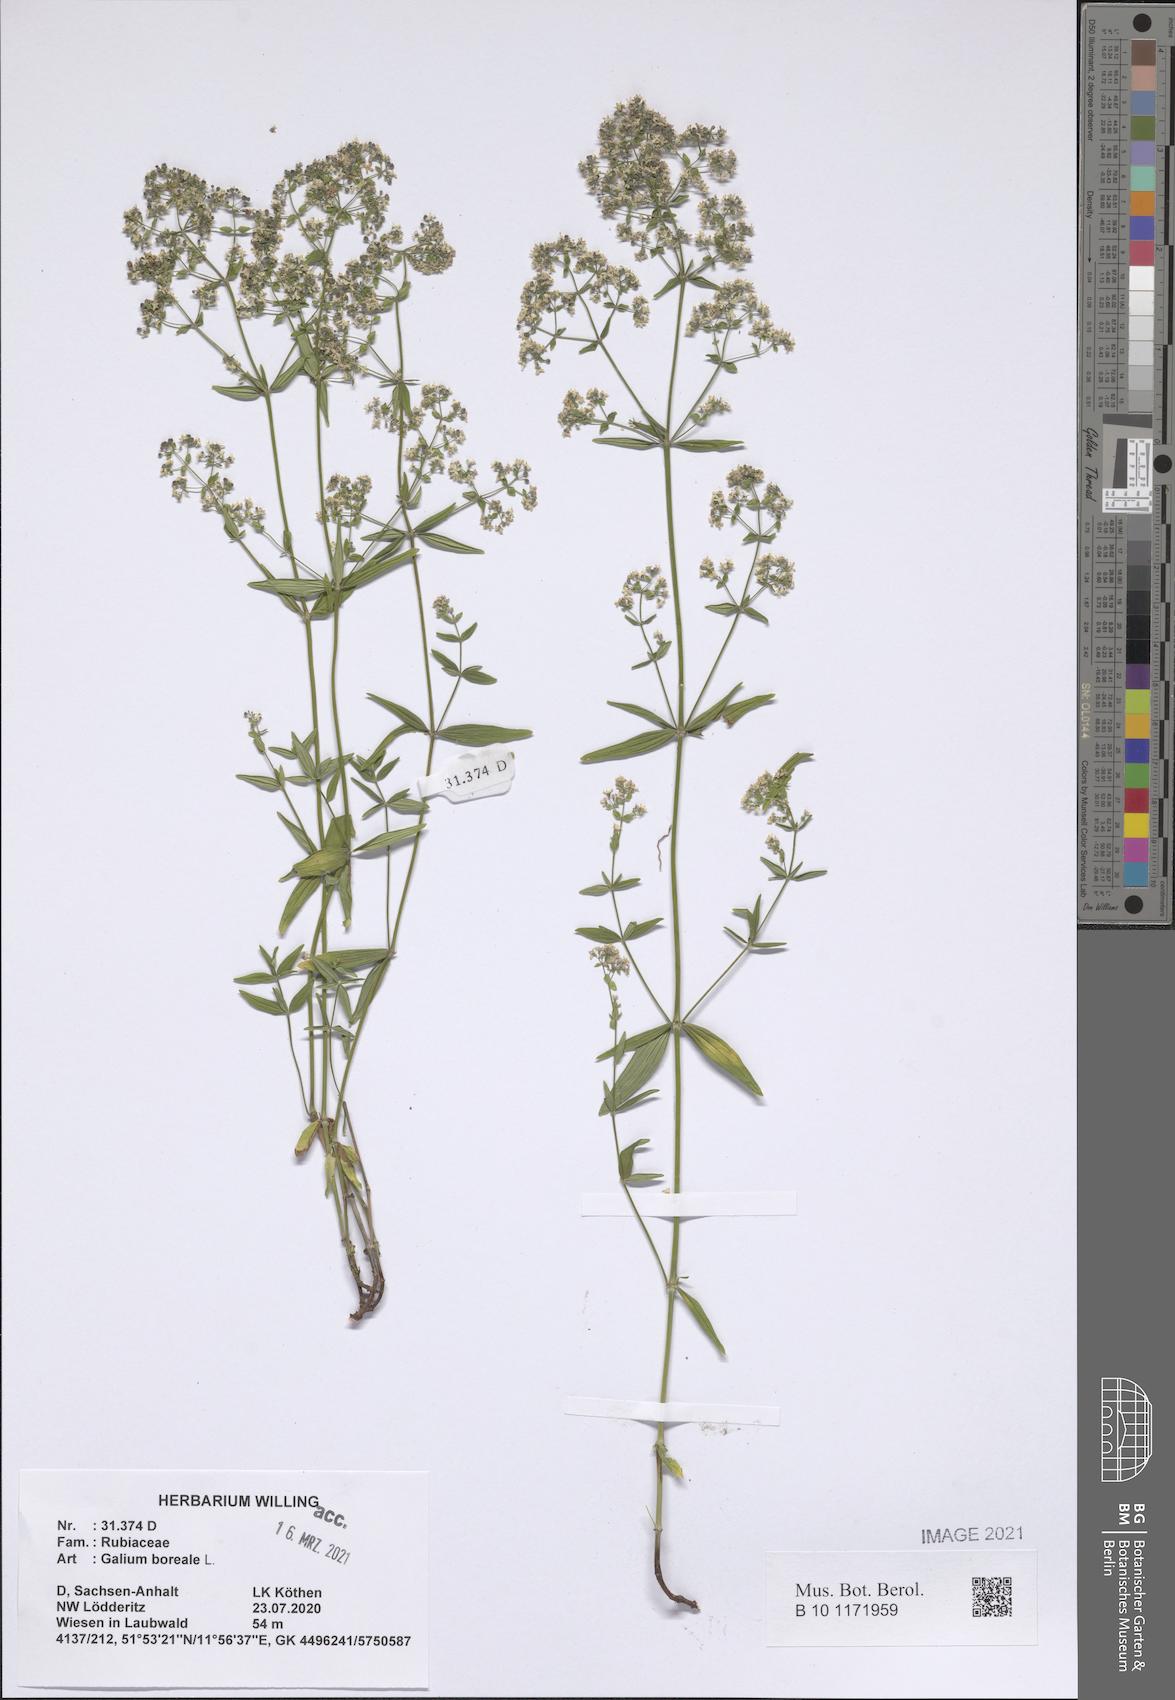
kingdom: Plantae
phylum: Tracheophyta
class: Magnoliopsida
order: Gentianales
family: Rubiaceae
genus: Galium
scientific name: Galium boreale
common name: Northern bedstraw
